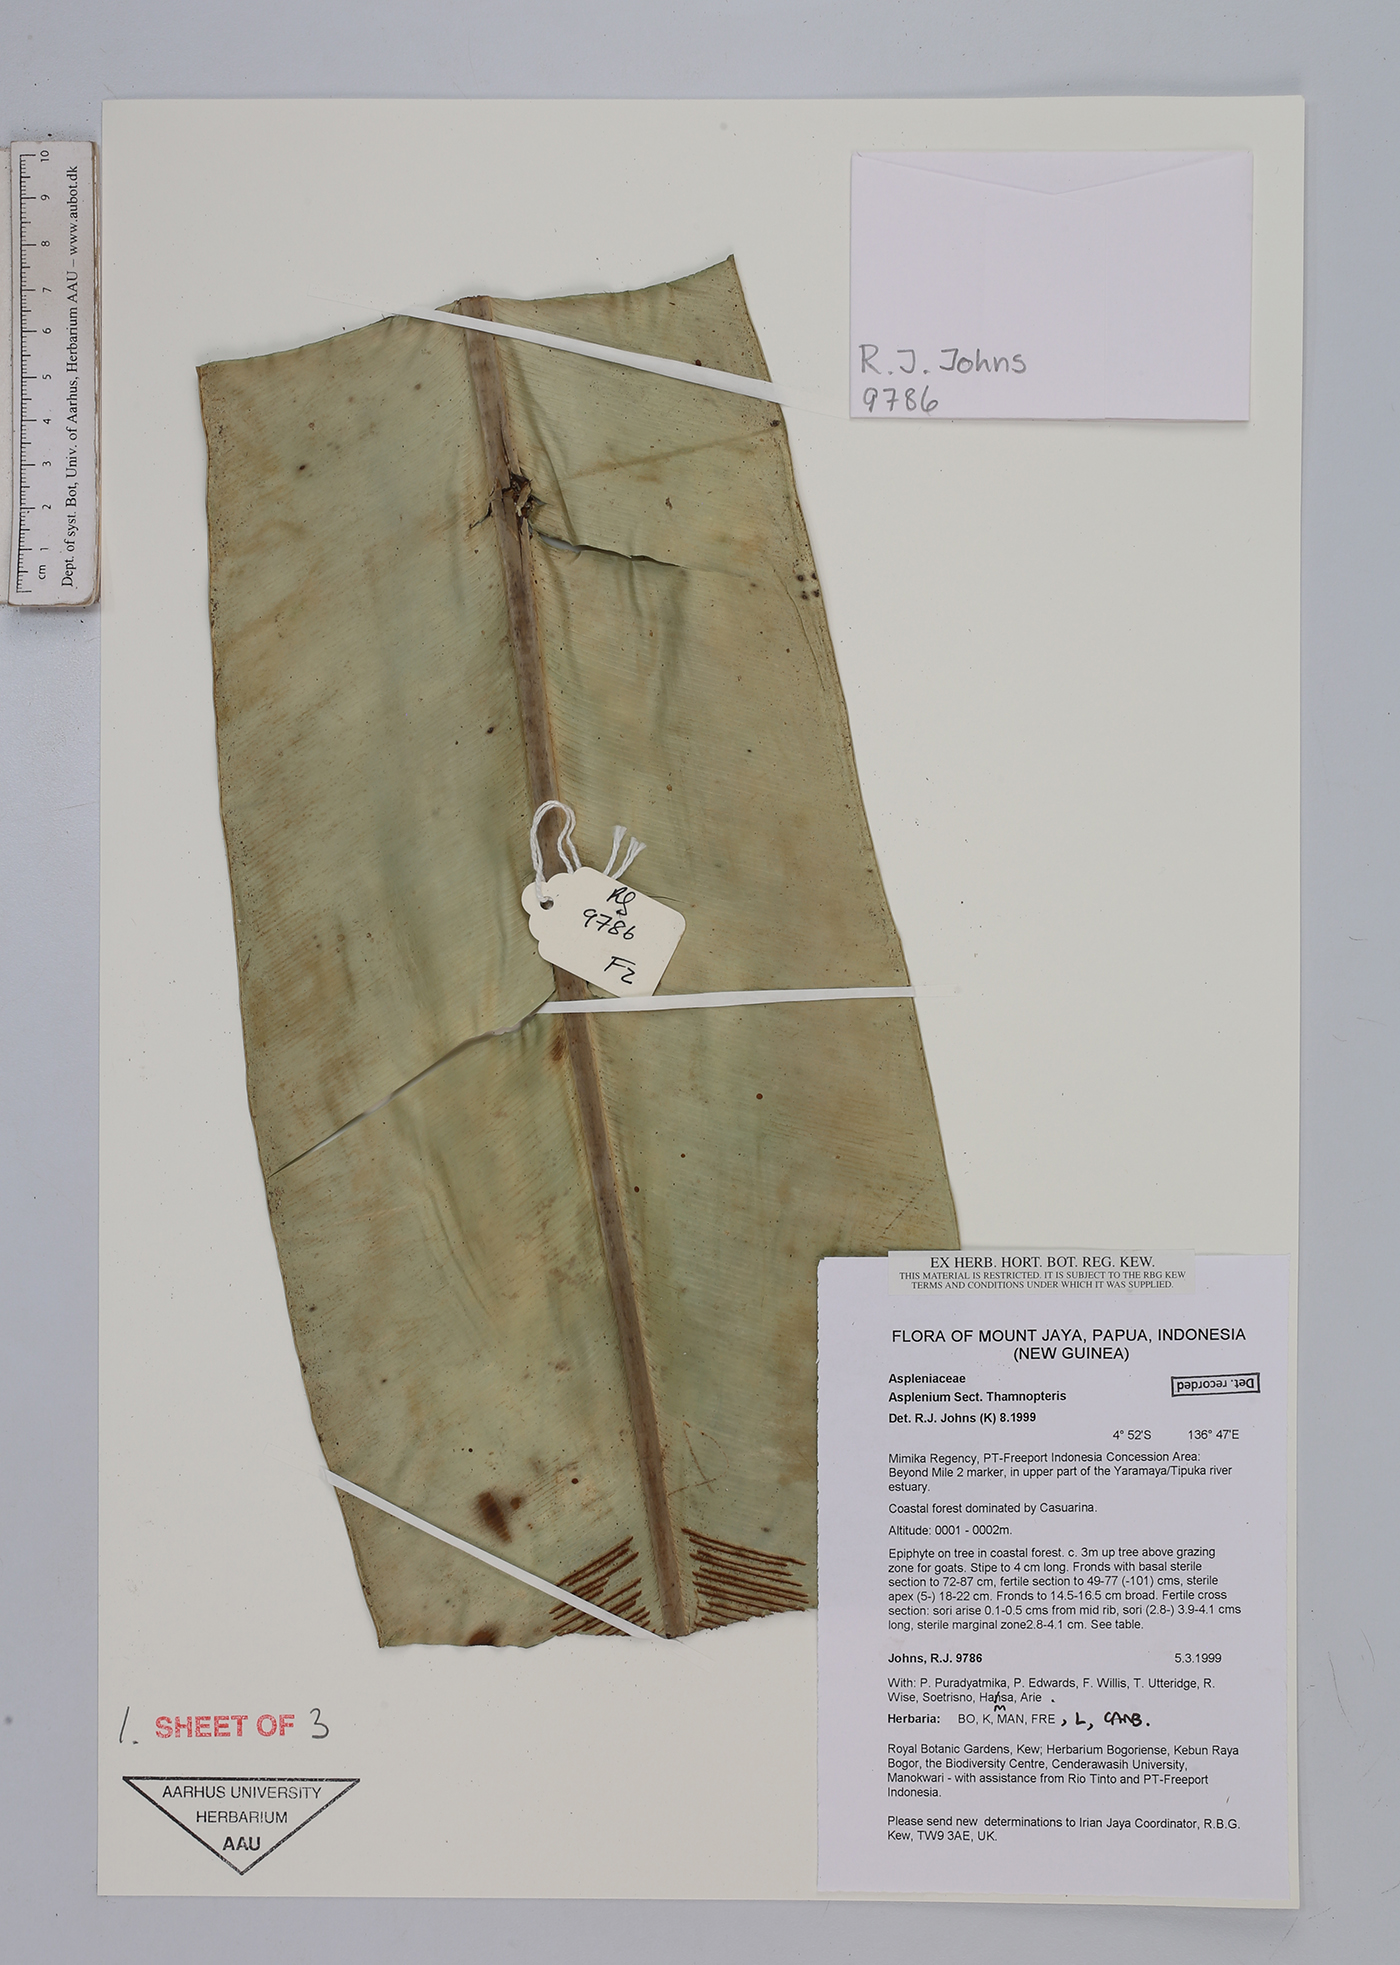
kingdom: Plantae
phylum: Tracheophyta
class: Polypodiopsida
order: Polypodiales
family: Aspleniaceae
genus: Asplenium
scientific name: Asplenium
